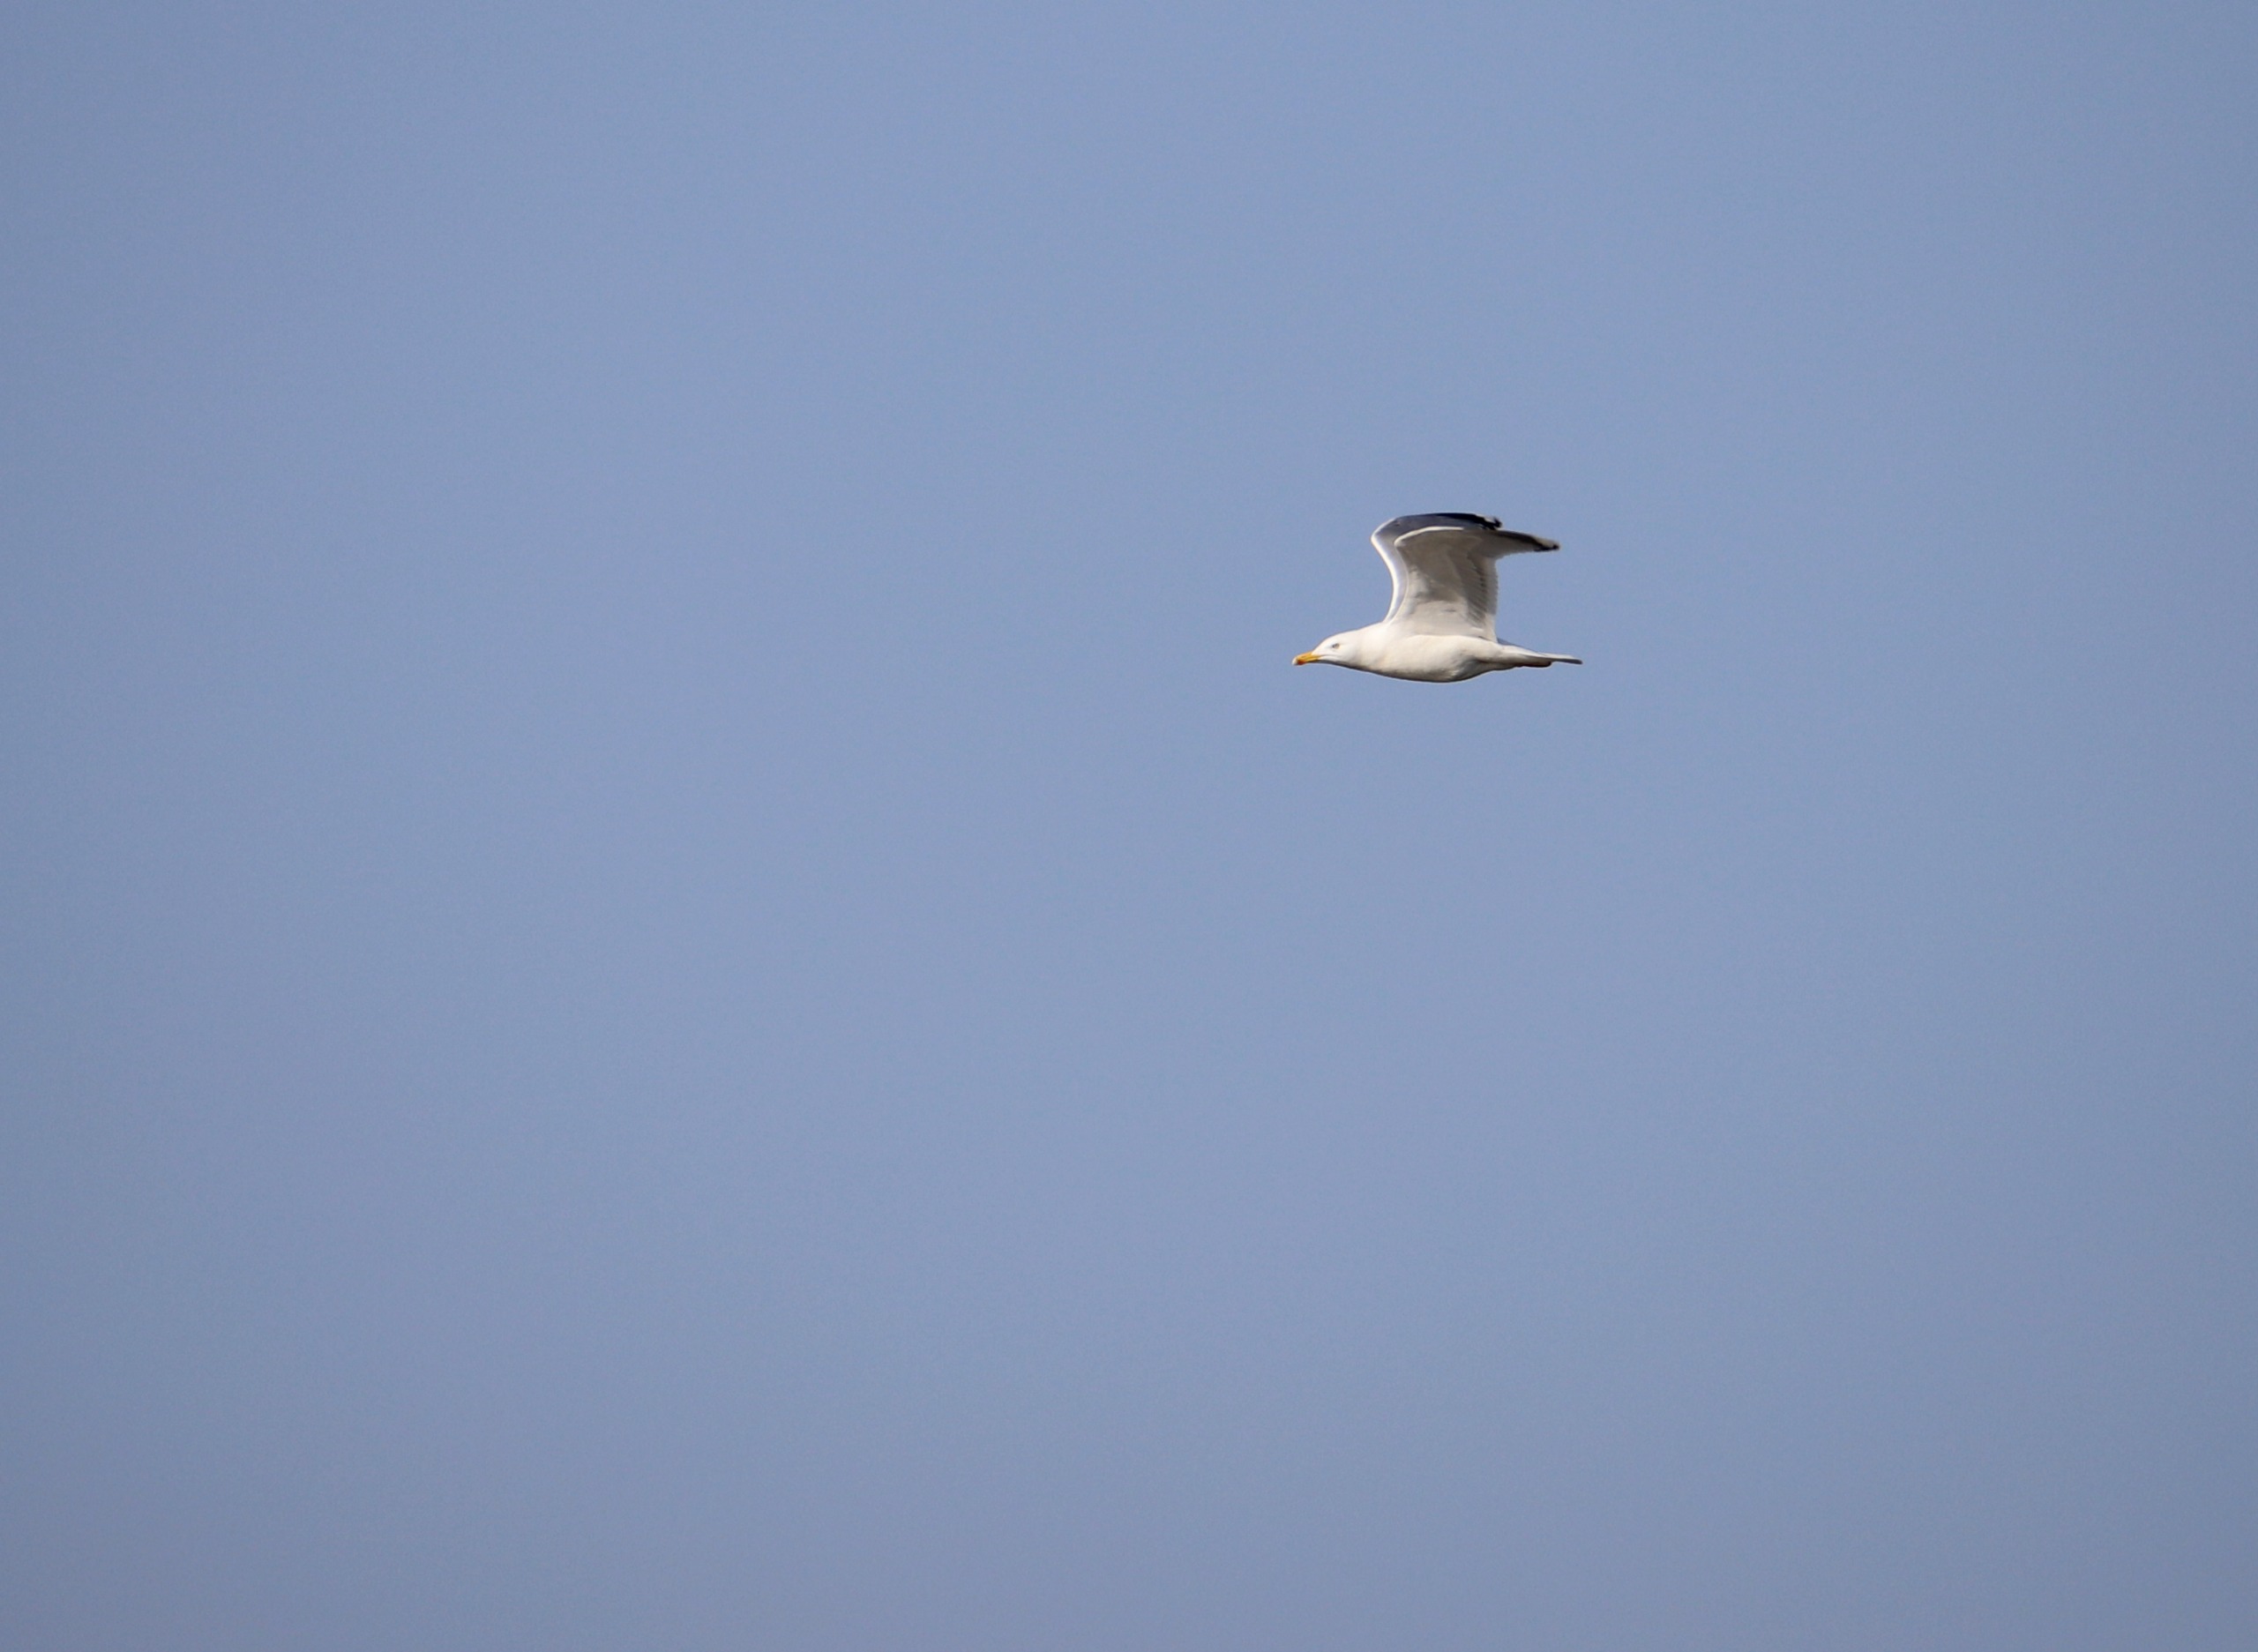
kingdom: Animalia
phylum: Chordata
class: Aves
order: Charadriiformes
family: Laridae
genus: Larus
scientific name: Larus argentatus
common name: Sølvmåge
